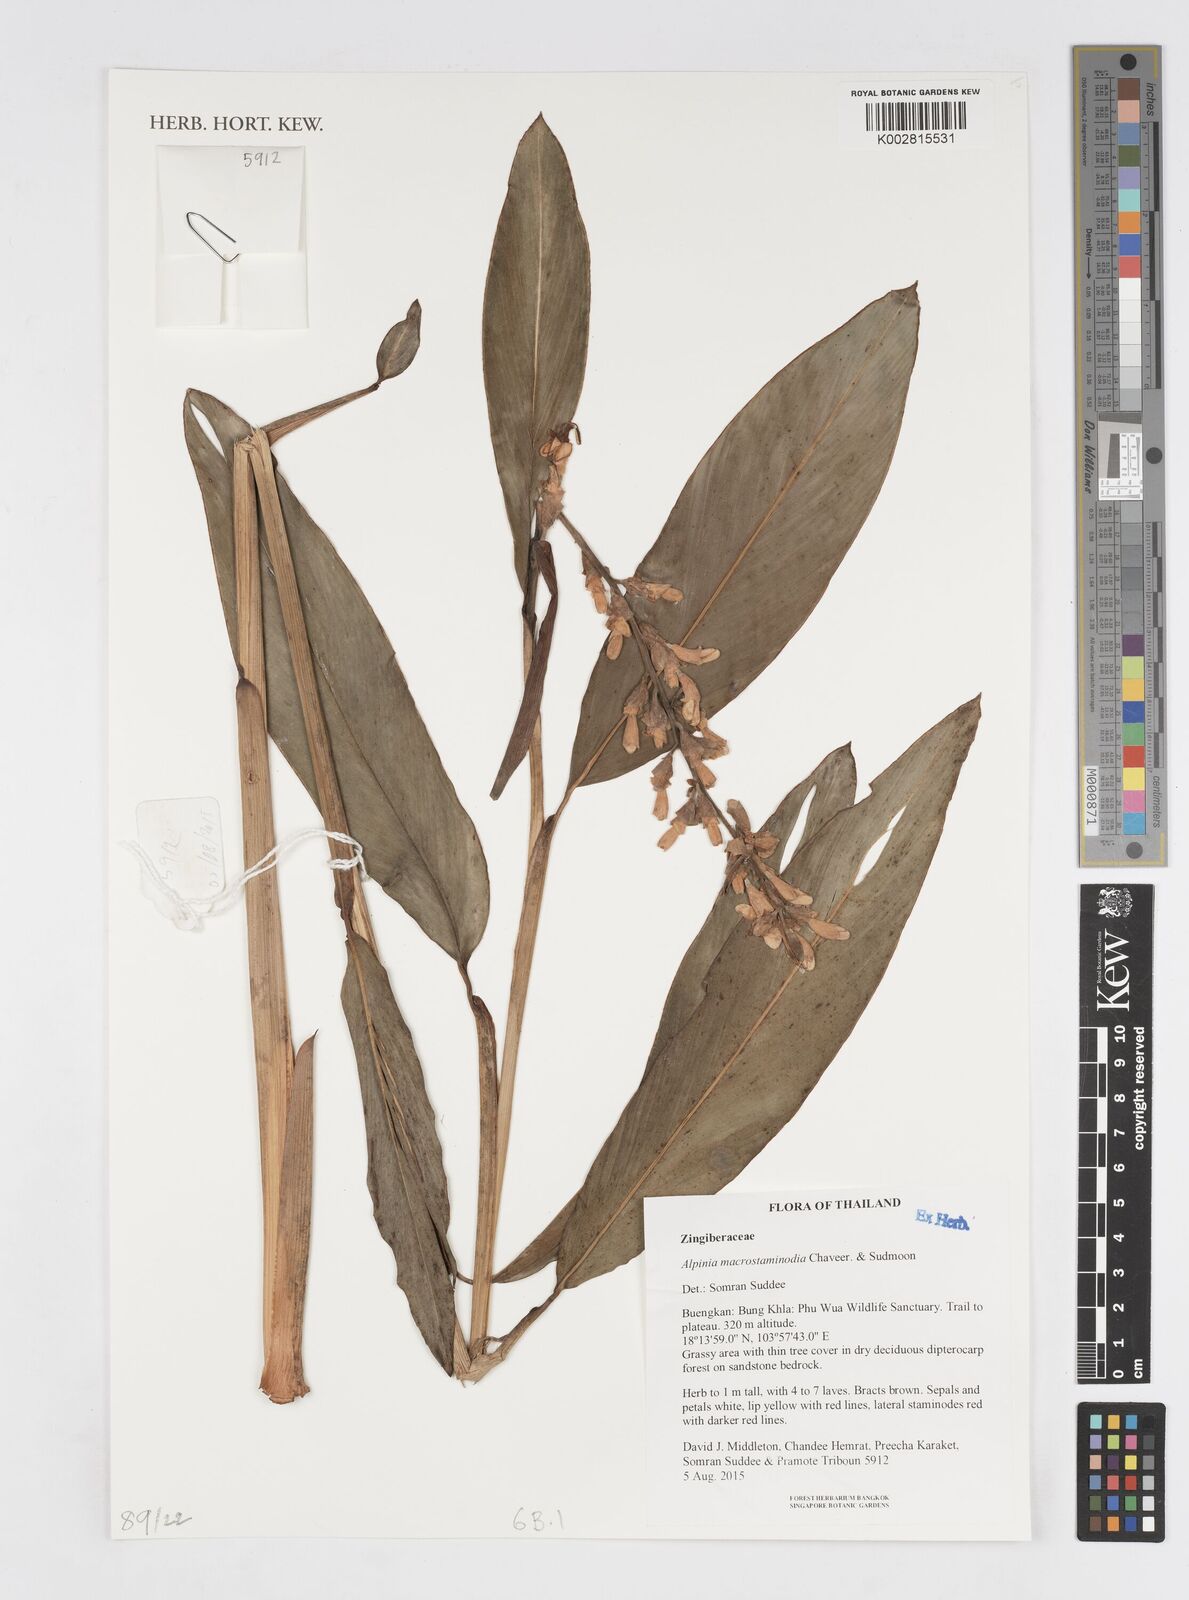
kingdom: Plantae
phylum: Tracheophyta
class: Liliopsida
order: Zingiberales
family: Zingiberaceae
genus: Alpinia
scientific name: Alpinia macrostaminodia
